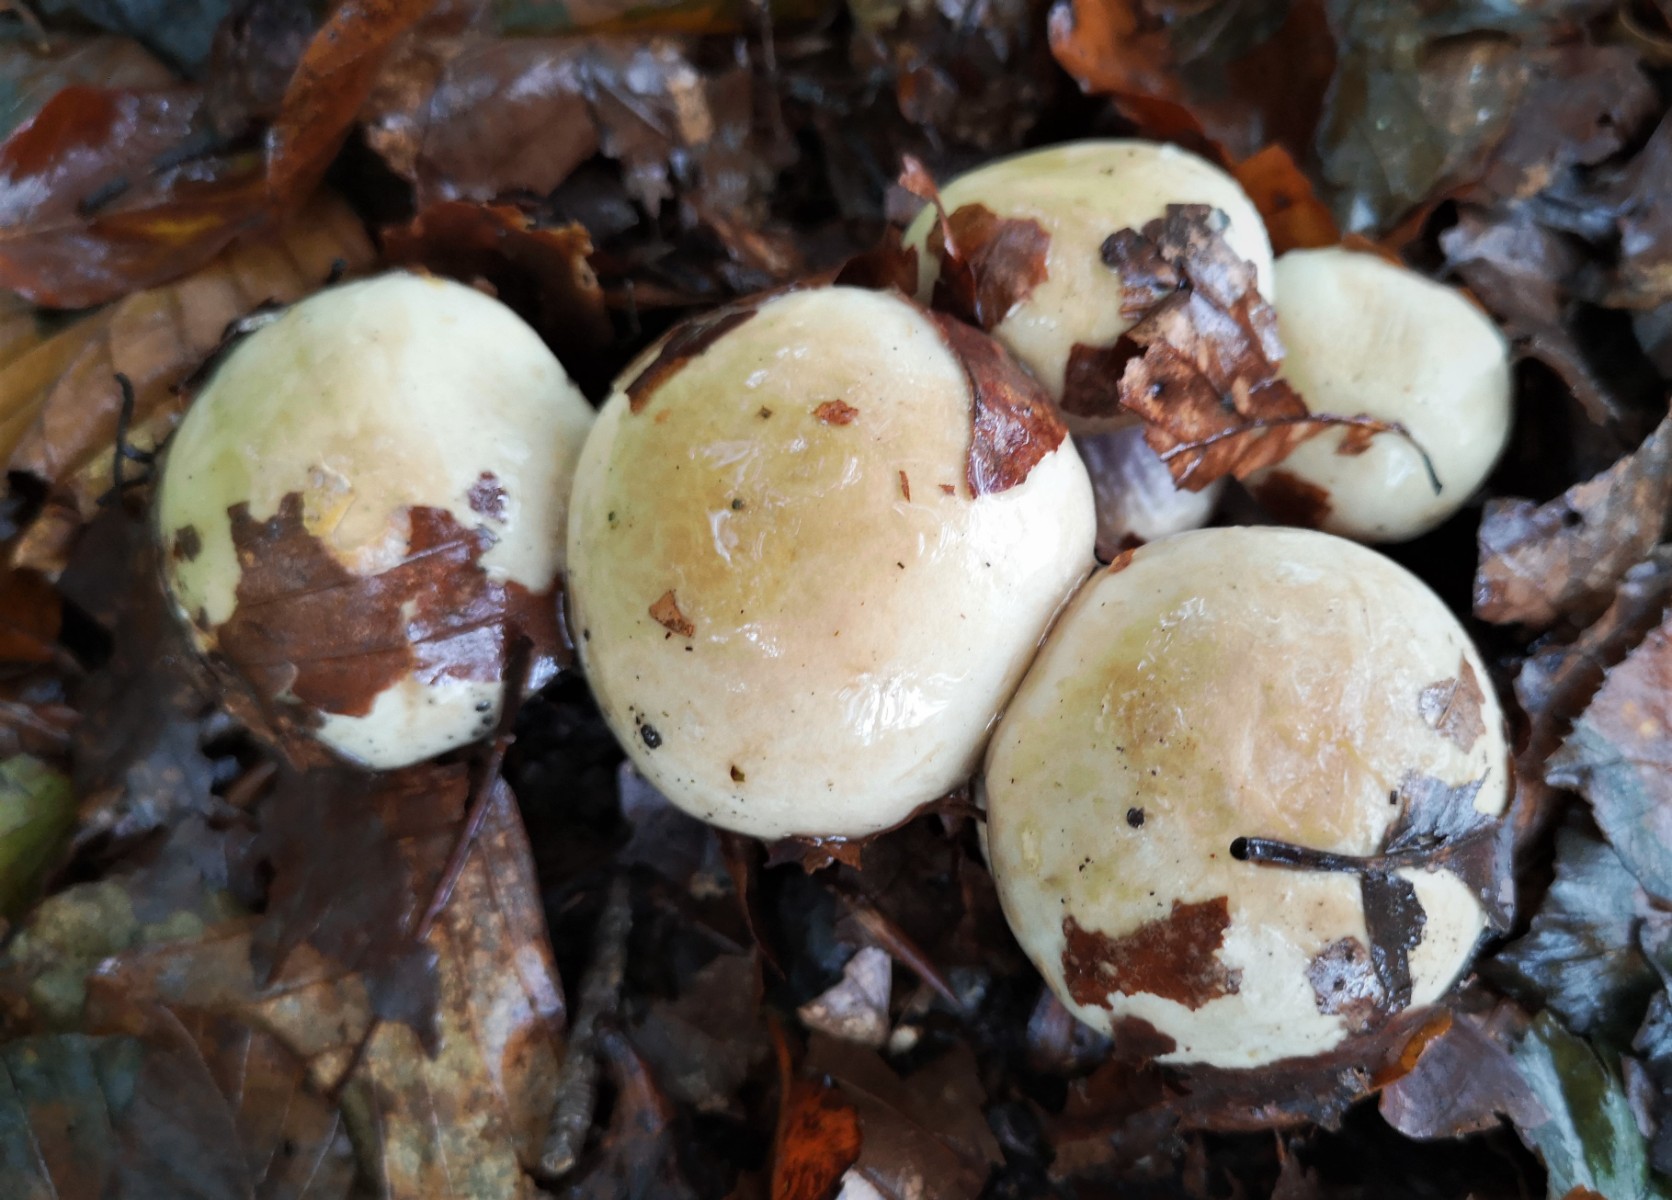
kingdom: Fungi
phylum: Basidiomycota
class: Agaricomycetes
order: Agaricales
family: Cortinariaceae
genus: Cortinarius
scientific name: Cortinarius anserinus
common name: bøge-slørhat
